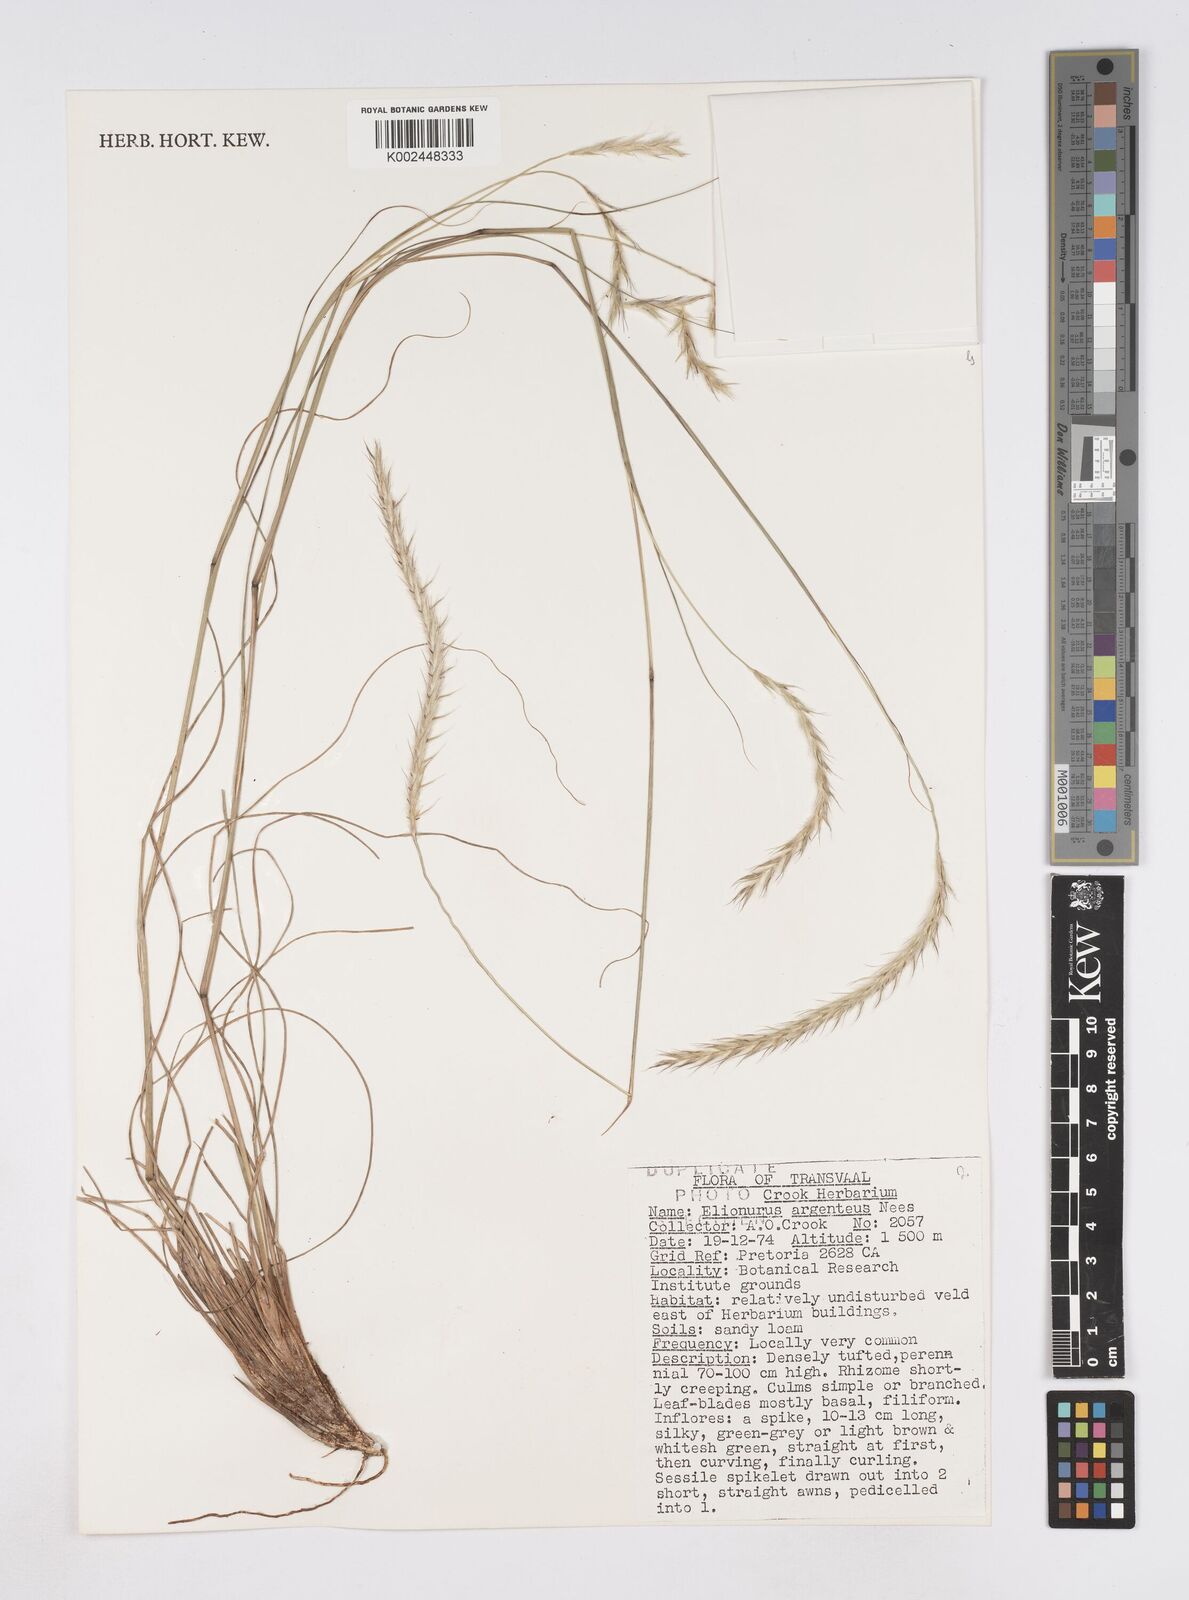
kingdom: Plantae
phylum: Tracheophyta
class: Liliopsida
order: Poales
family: Poaceae
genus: Elionurus
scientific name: Elionurus muticus
